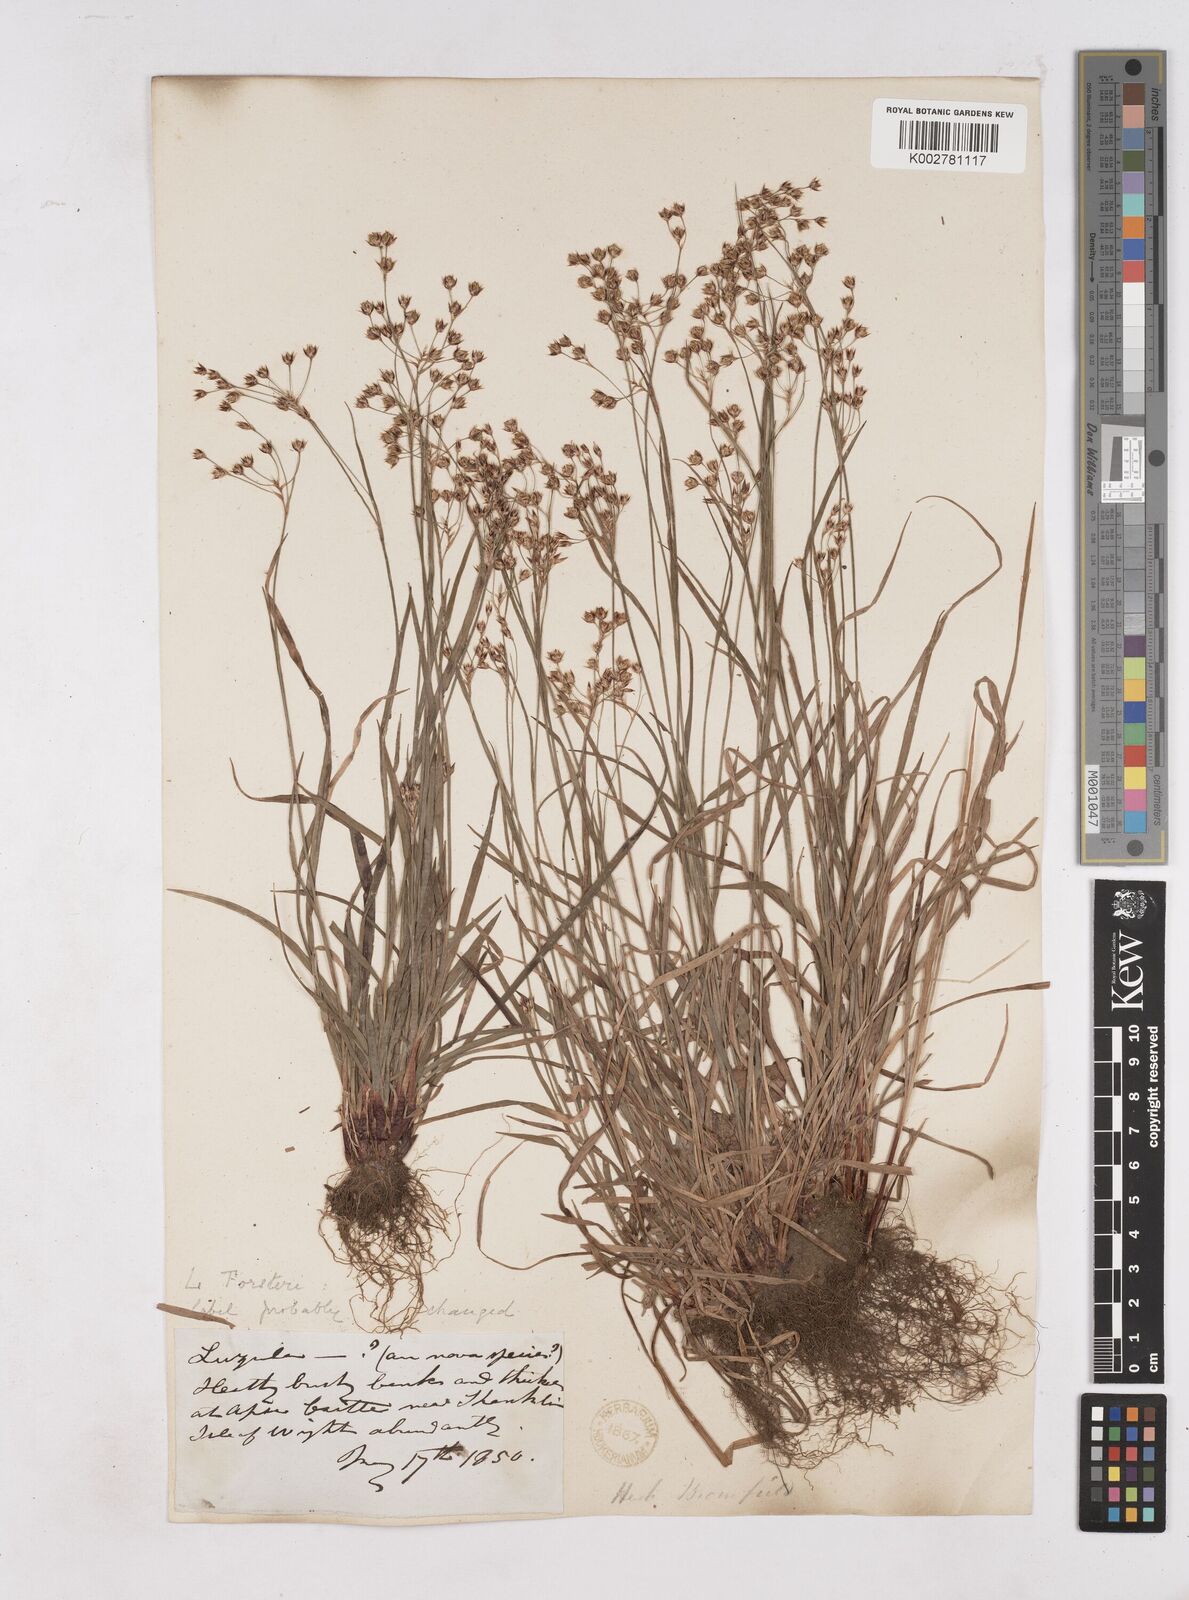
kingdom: Plantae
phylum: Tracheophyta
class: Liliopsida
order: Poales
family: Juncaceae
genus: Luzula
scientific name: Luzula forsteri
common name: Southern wood-rush
